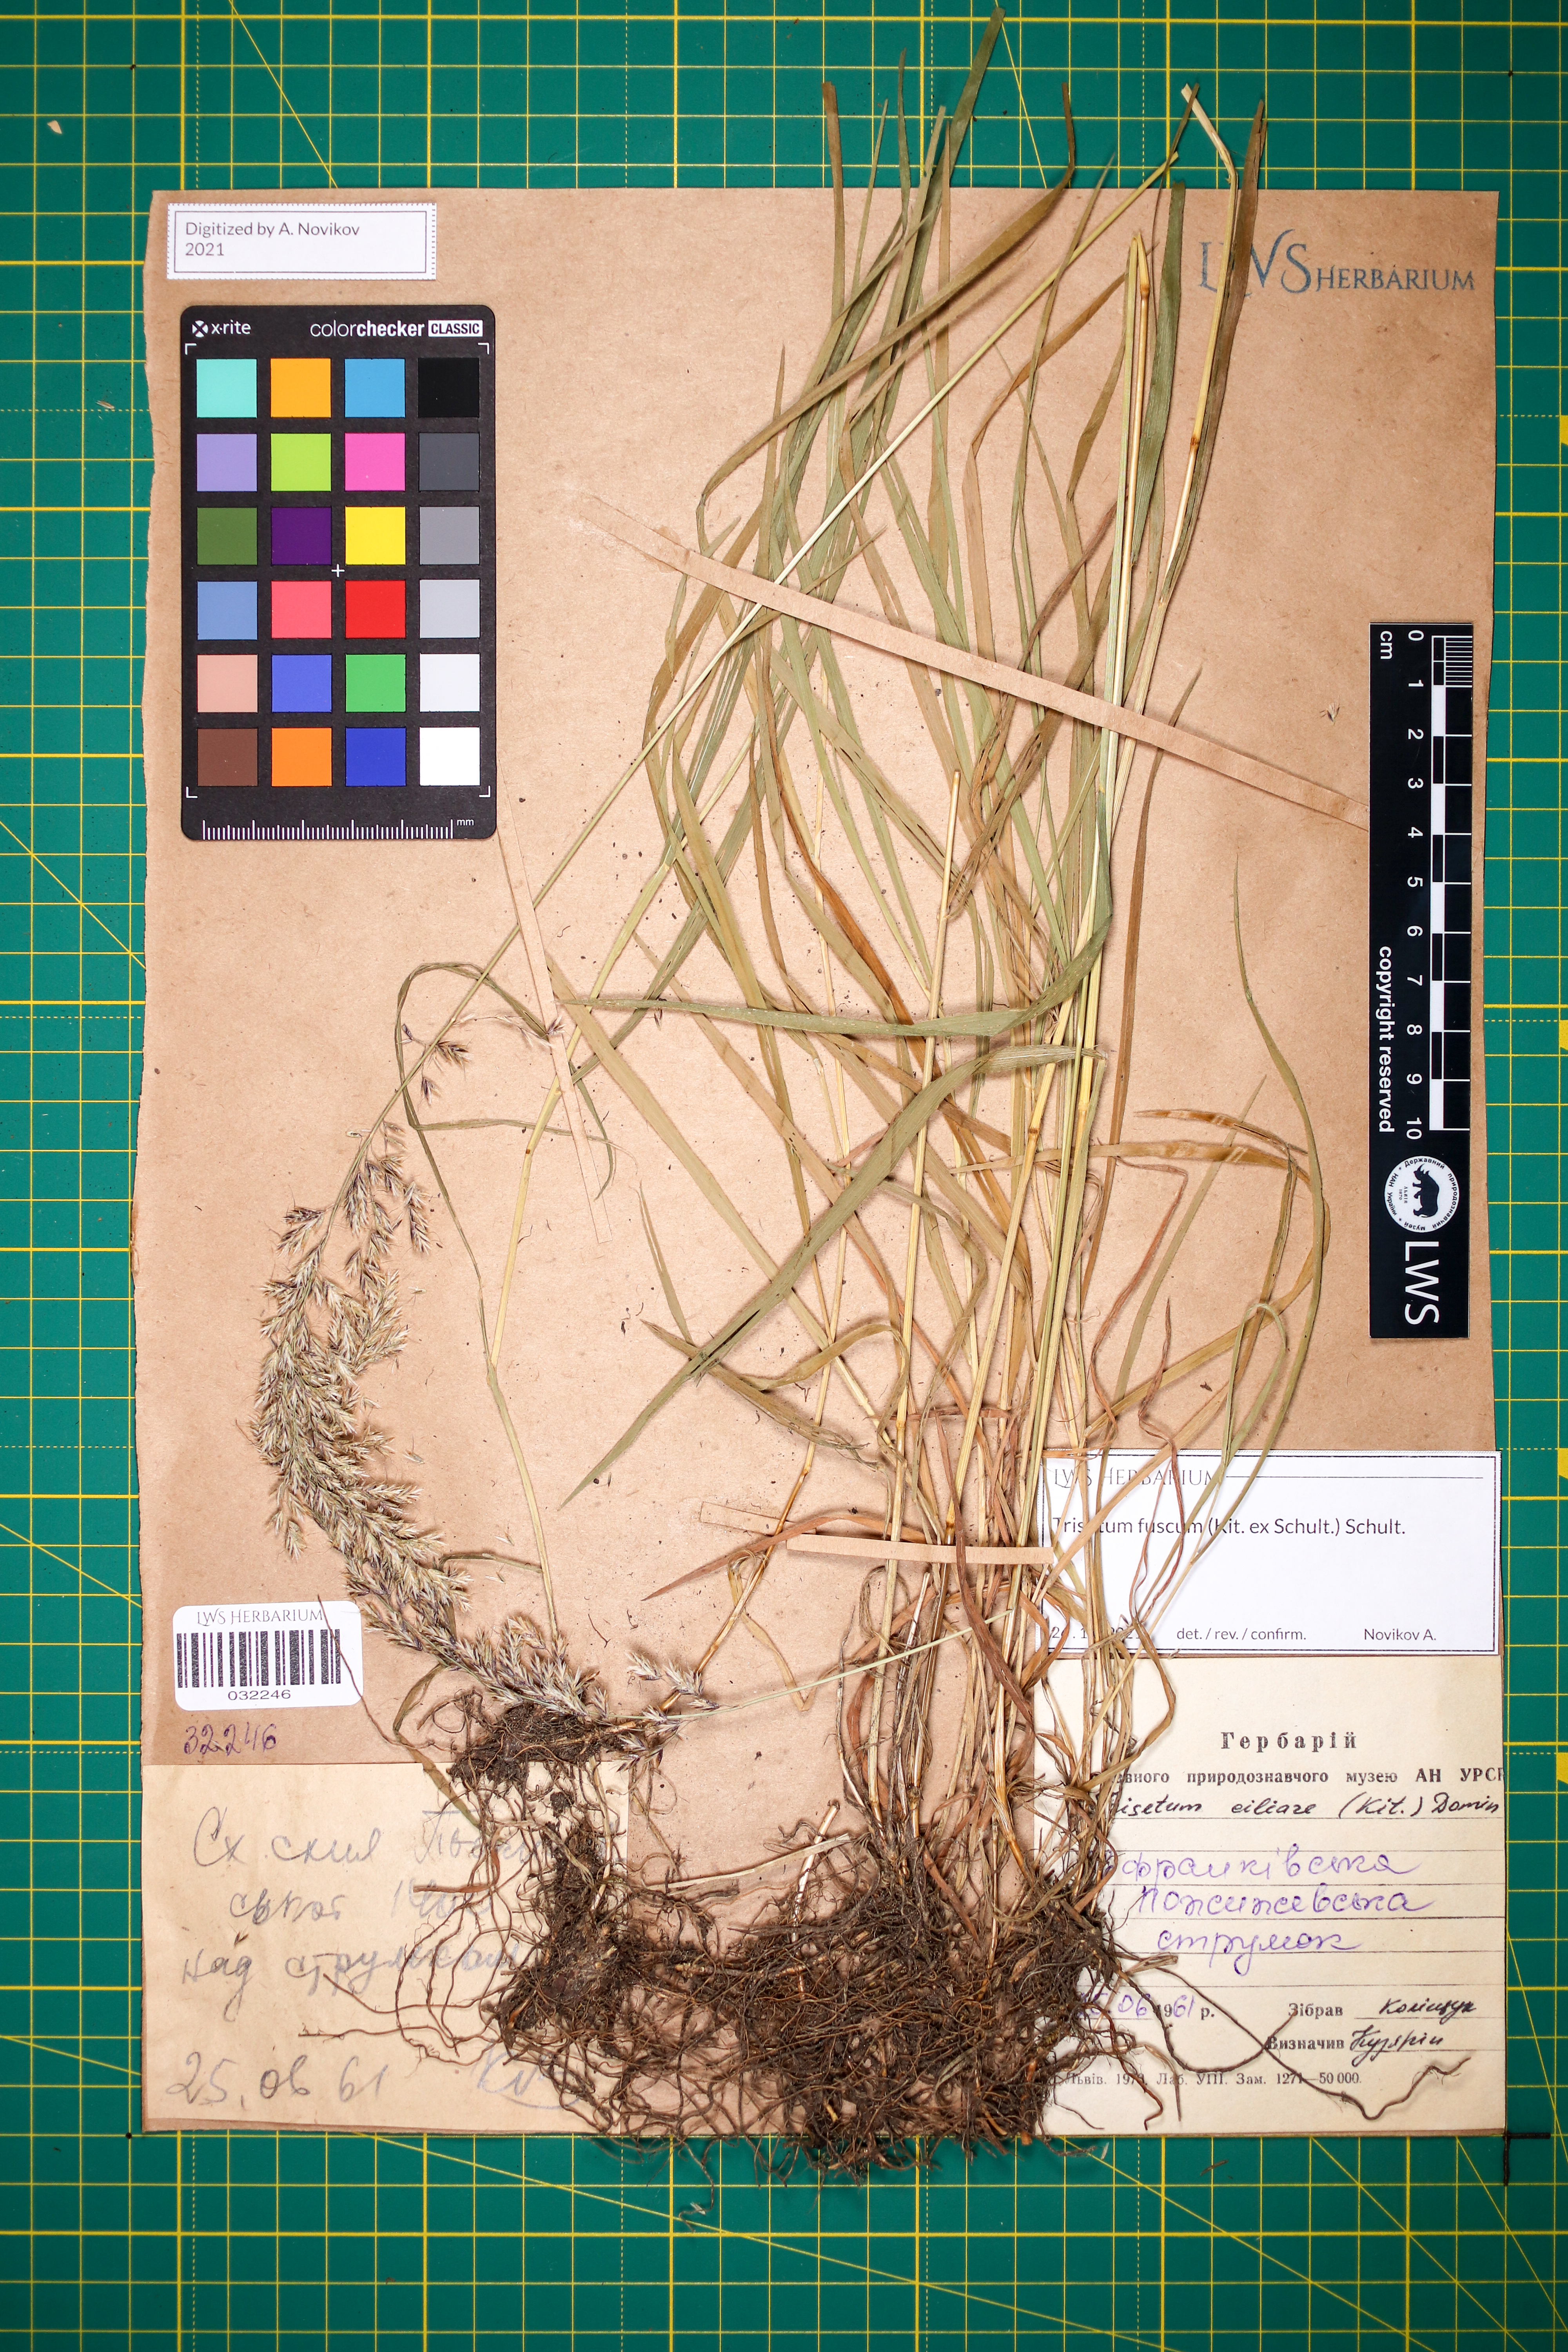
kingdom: Plantae
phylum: Tracheophyta
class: Liliopsida
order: Poales
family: Poaceae
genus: Trisetum
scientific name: Trisetum fuscum
